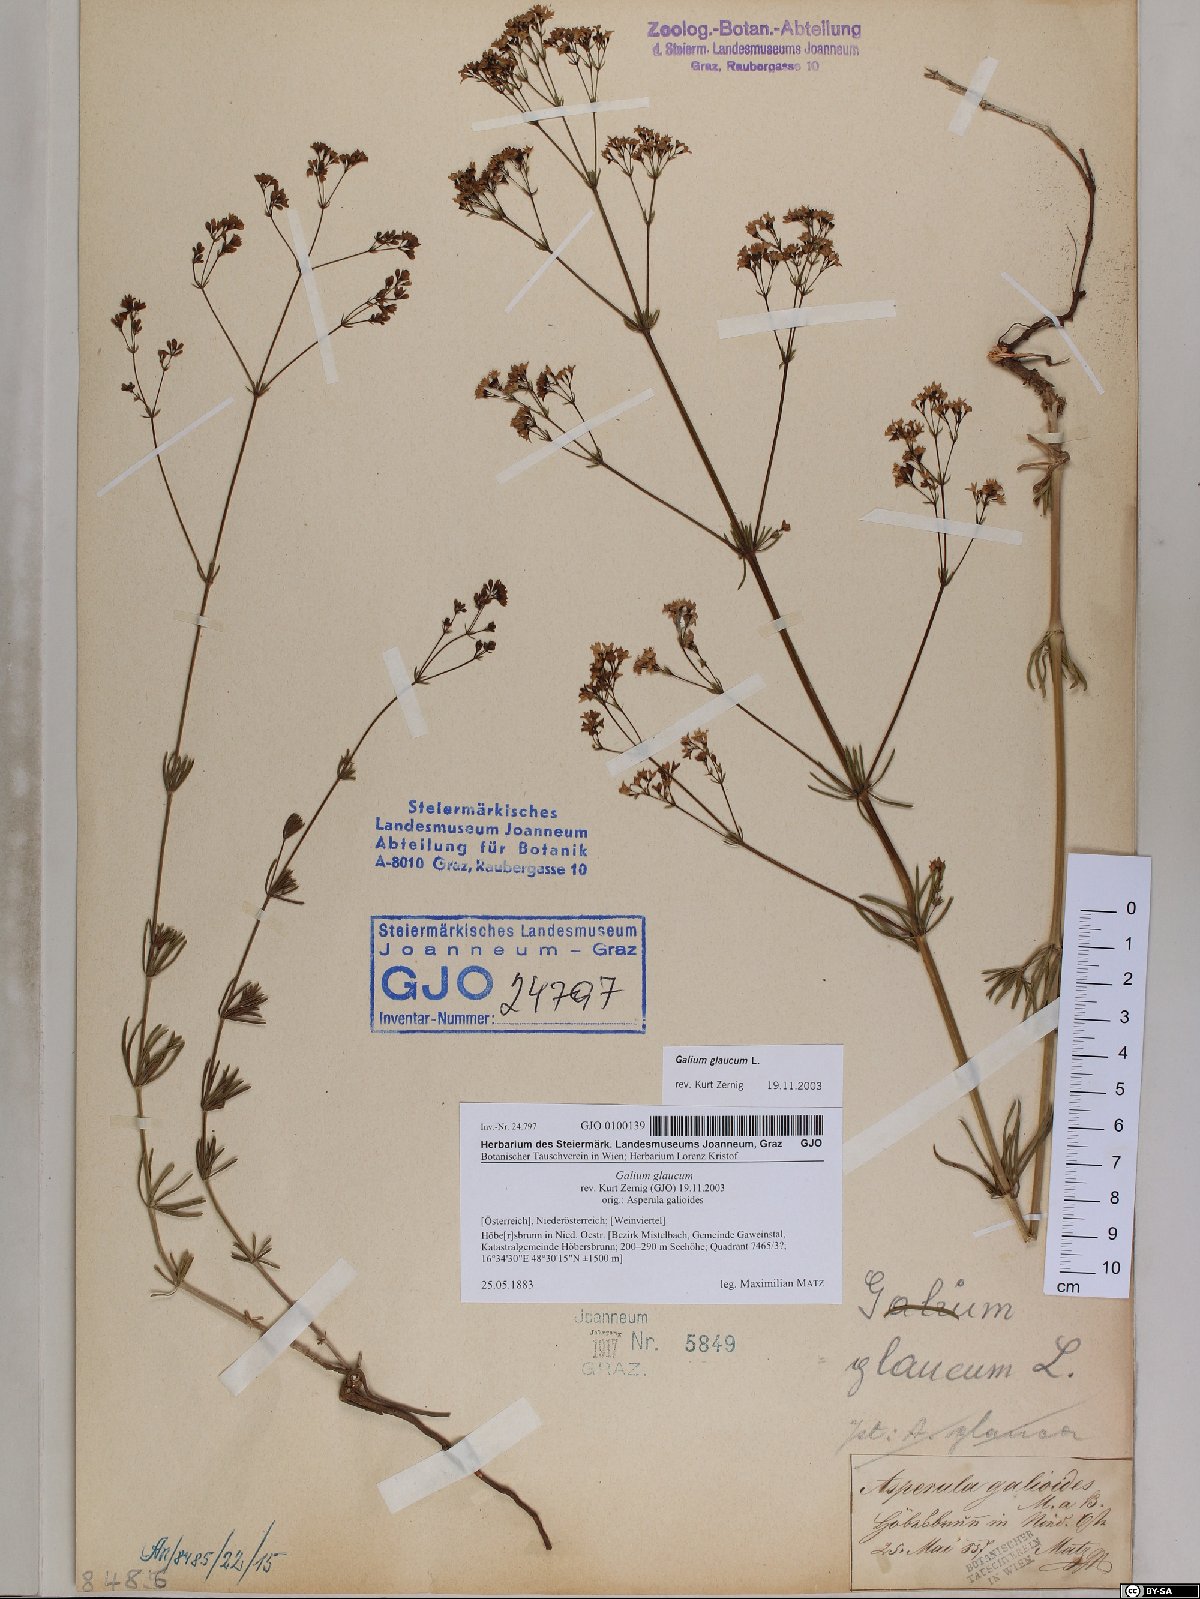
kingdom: Plantae
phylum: Tracheophyta
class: Magnoliopsida
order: Gentianales
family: Rubiaceae
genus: Galium
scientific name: Galium glaucum
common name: Waxy bedstraw
